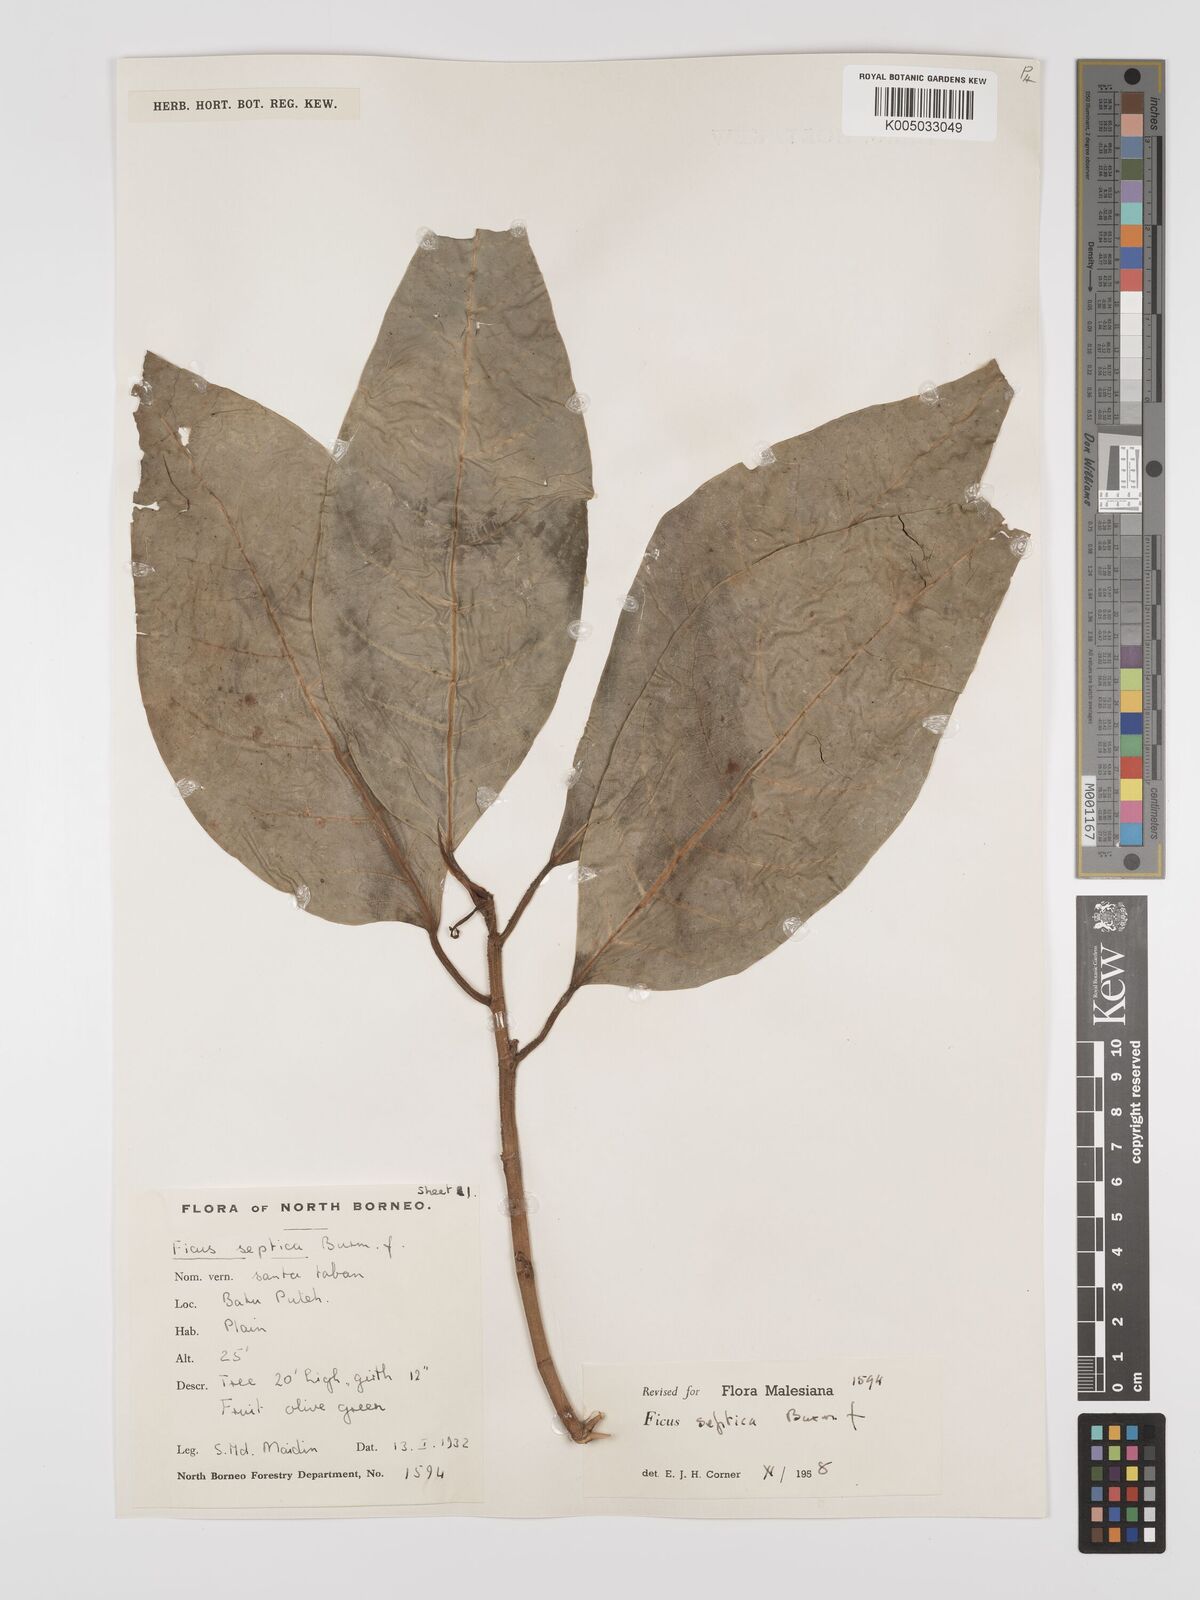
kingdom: Plantae
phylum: Tracheophyta
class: Magnoliopsida
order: Rosales
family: Moraceae
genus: Ficus
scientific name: Ficus septica
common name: Septic fig
